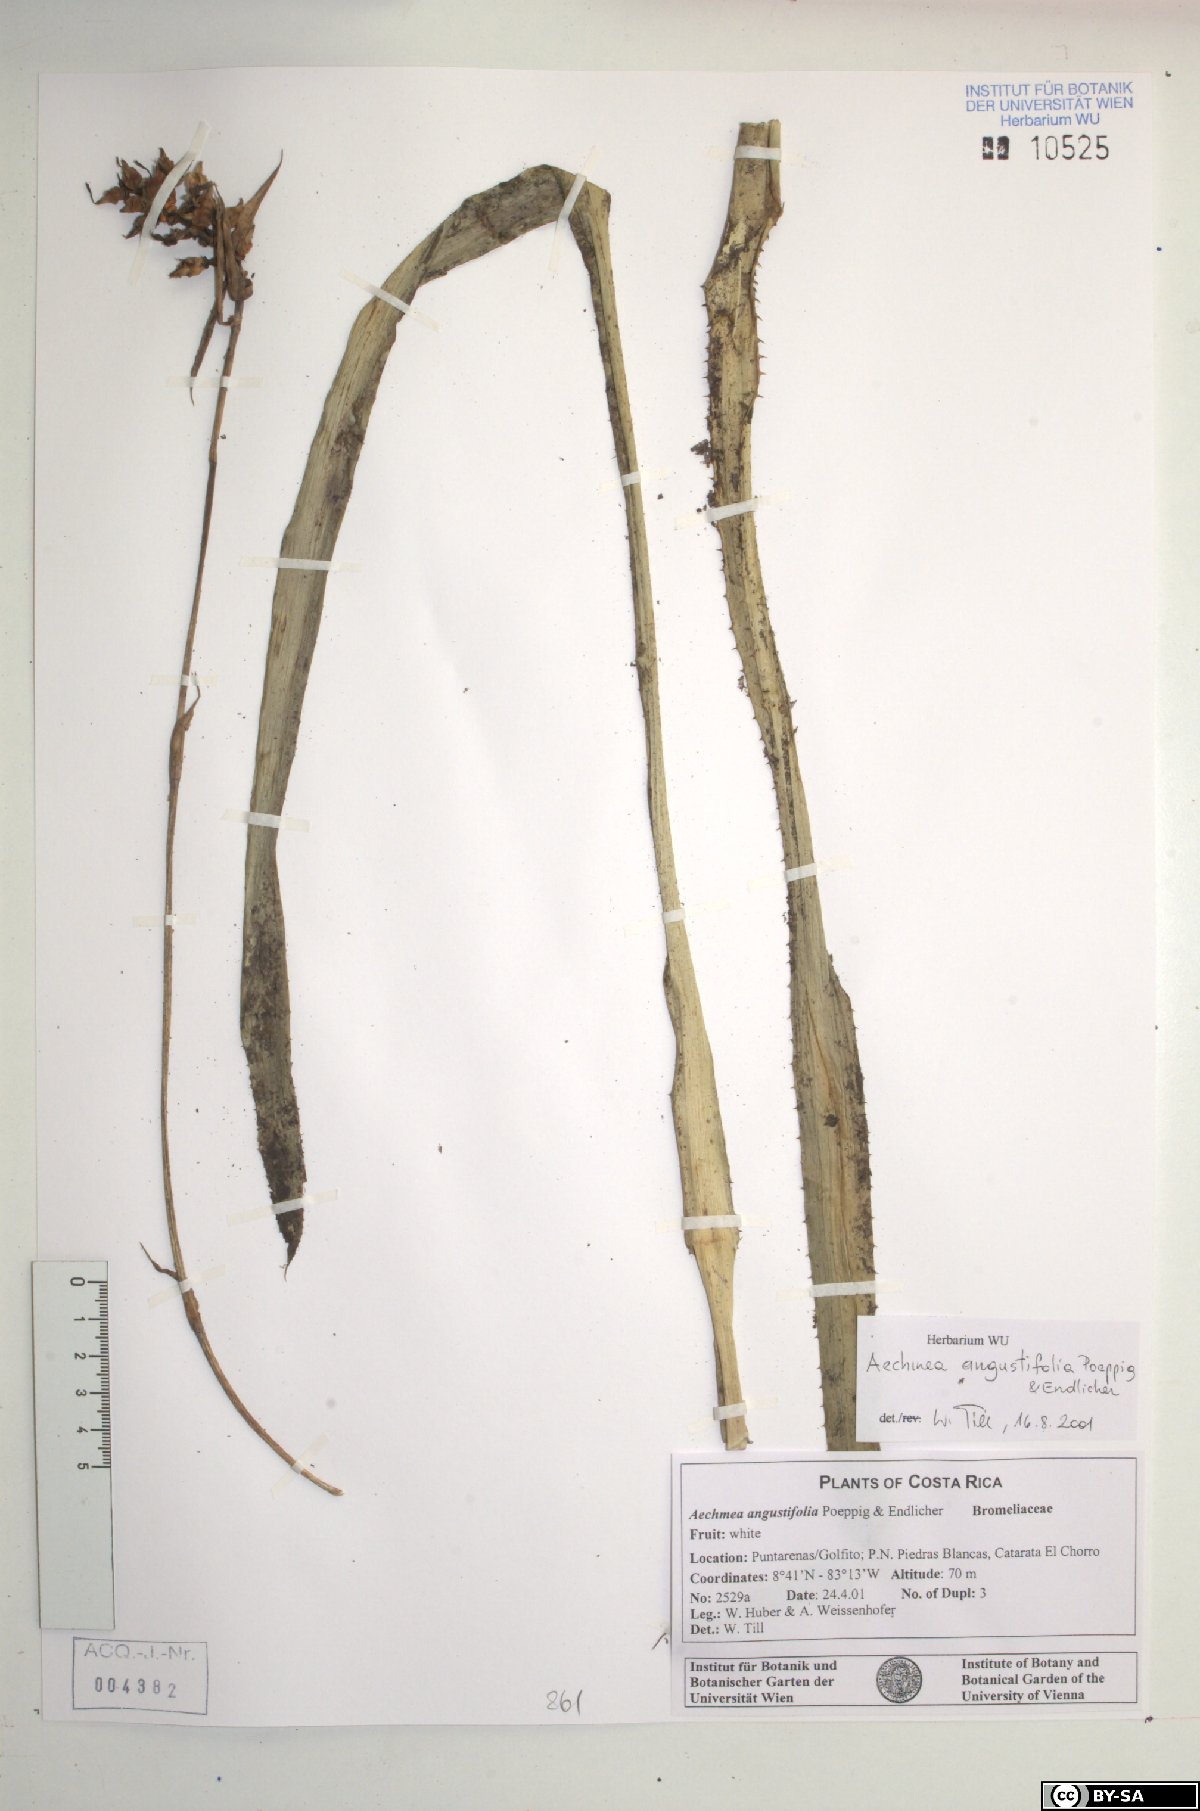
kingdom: Plantae
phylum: Tracheophyta
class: Liliopsida
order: Poales
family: Bromeliaceae
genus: Aechmea
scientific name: Aechmea angustifolia
